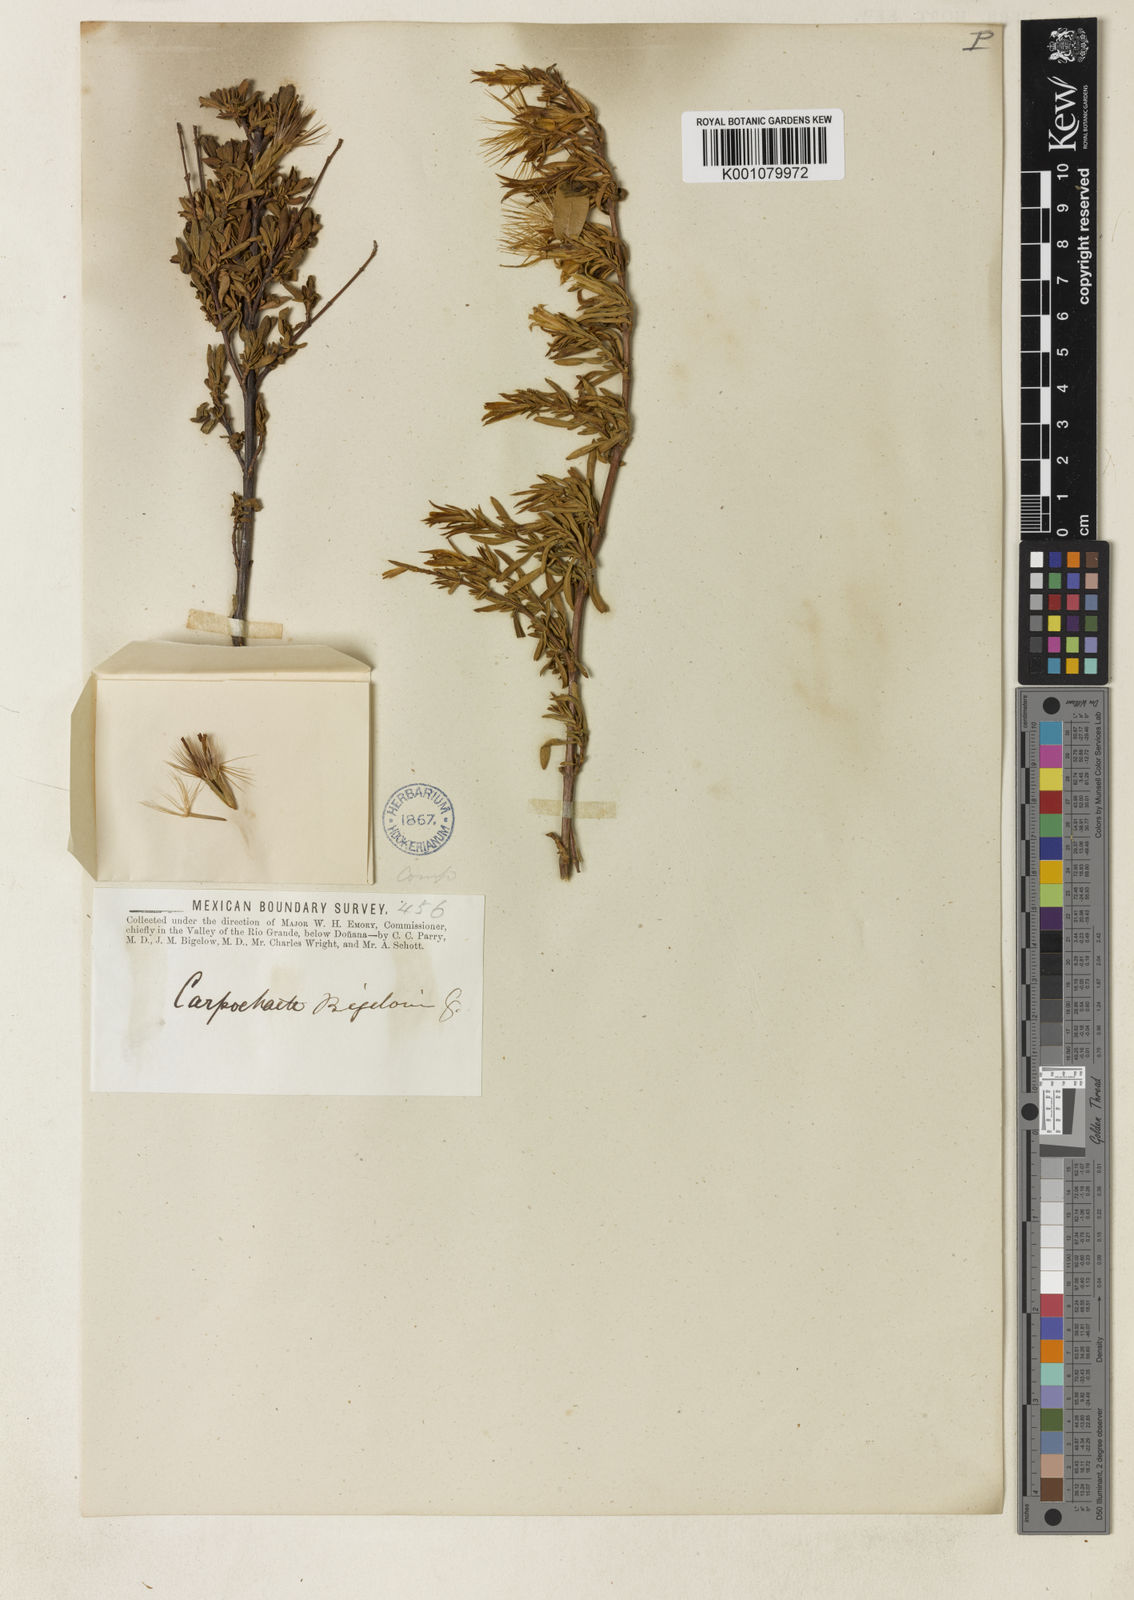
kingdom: Plantae
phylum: Tracheophyta
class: Magnoliopsida
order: Asterales
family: Asteraceae
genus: Carphochaete
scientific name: Carphochaete bigelovii
